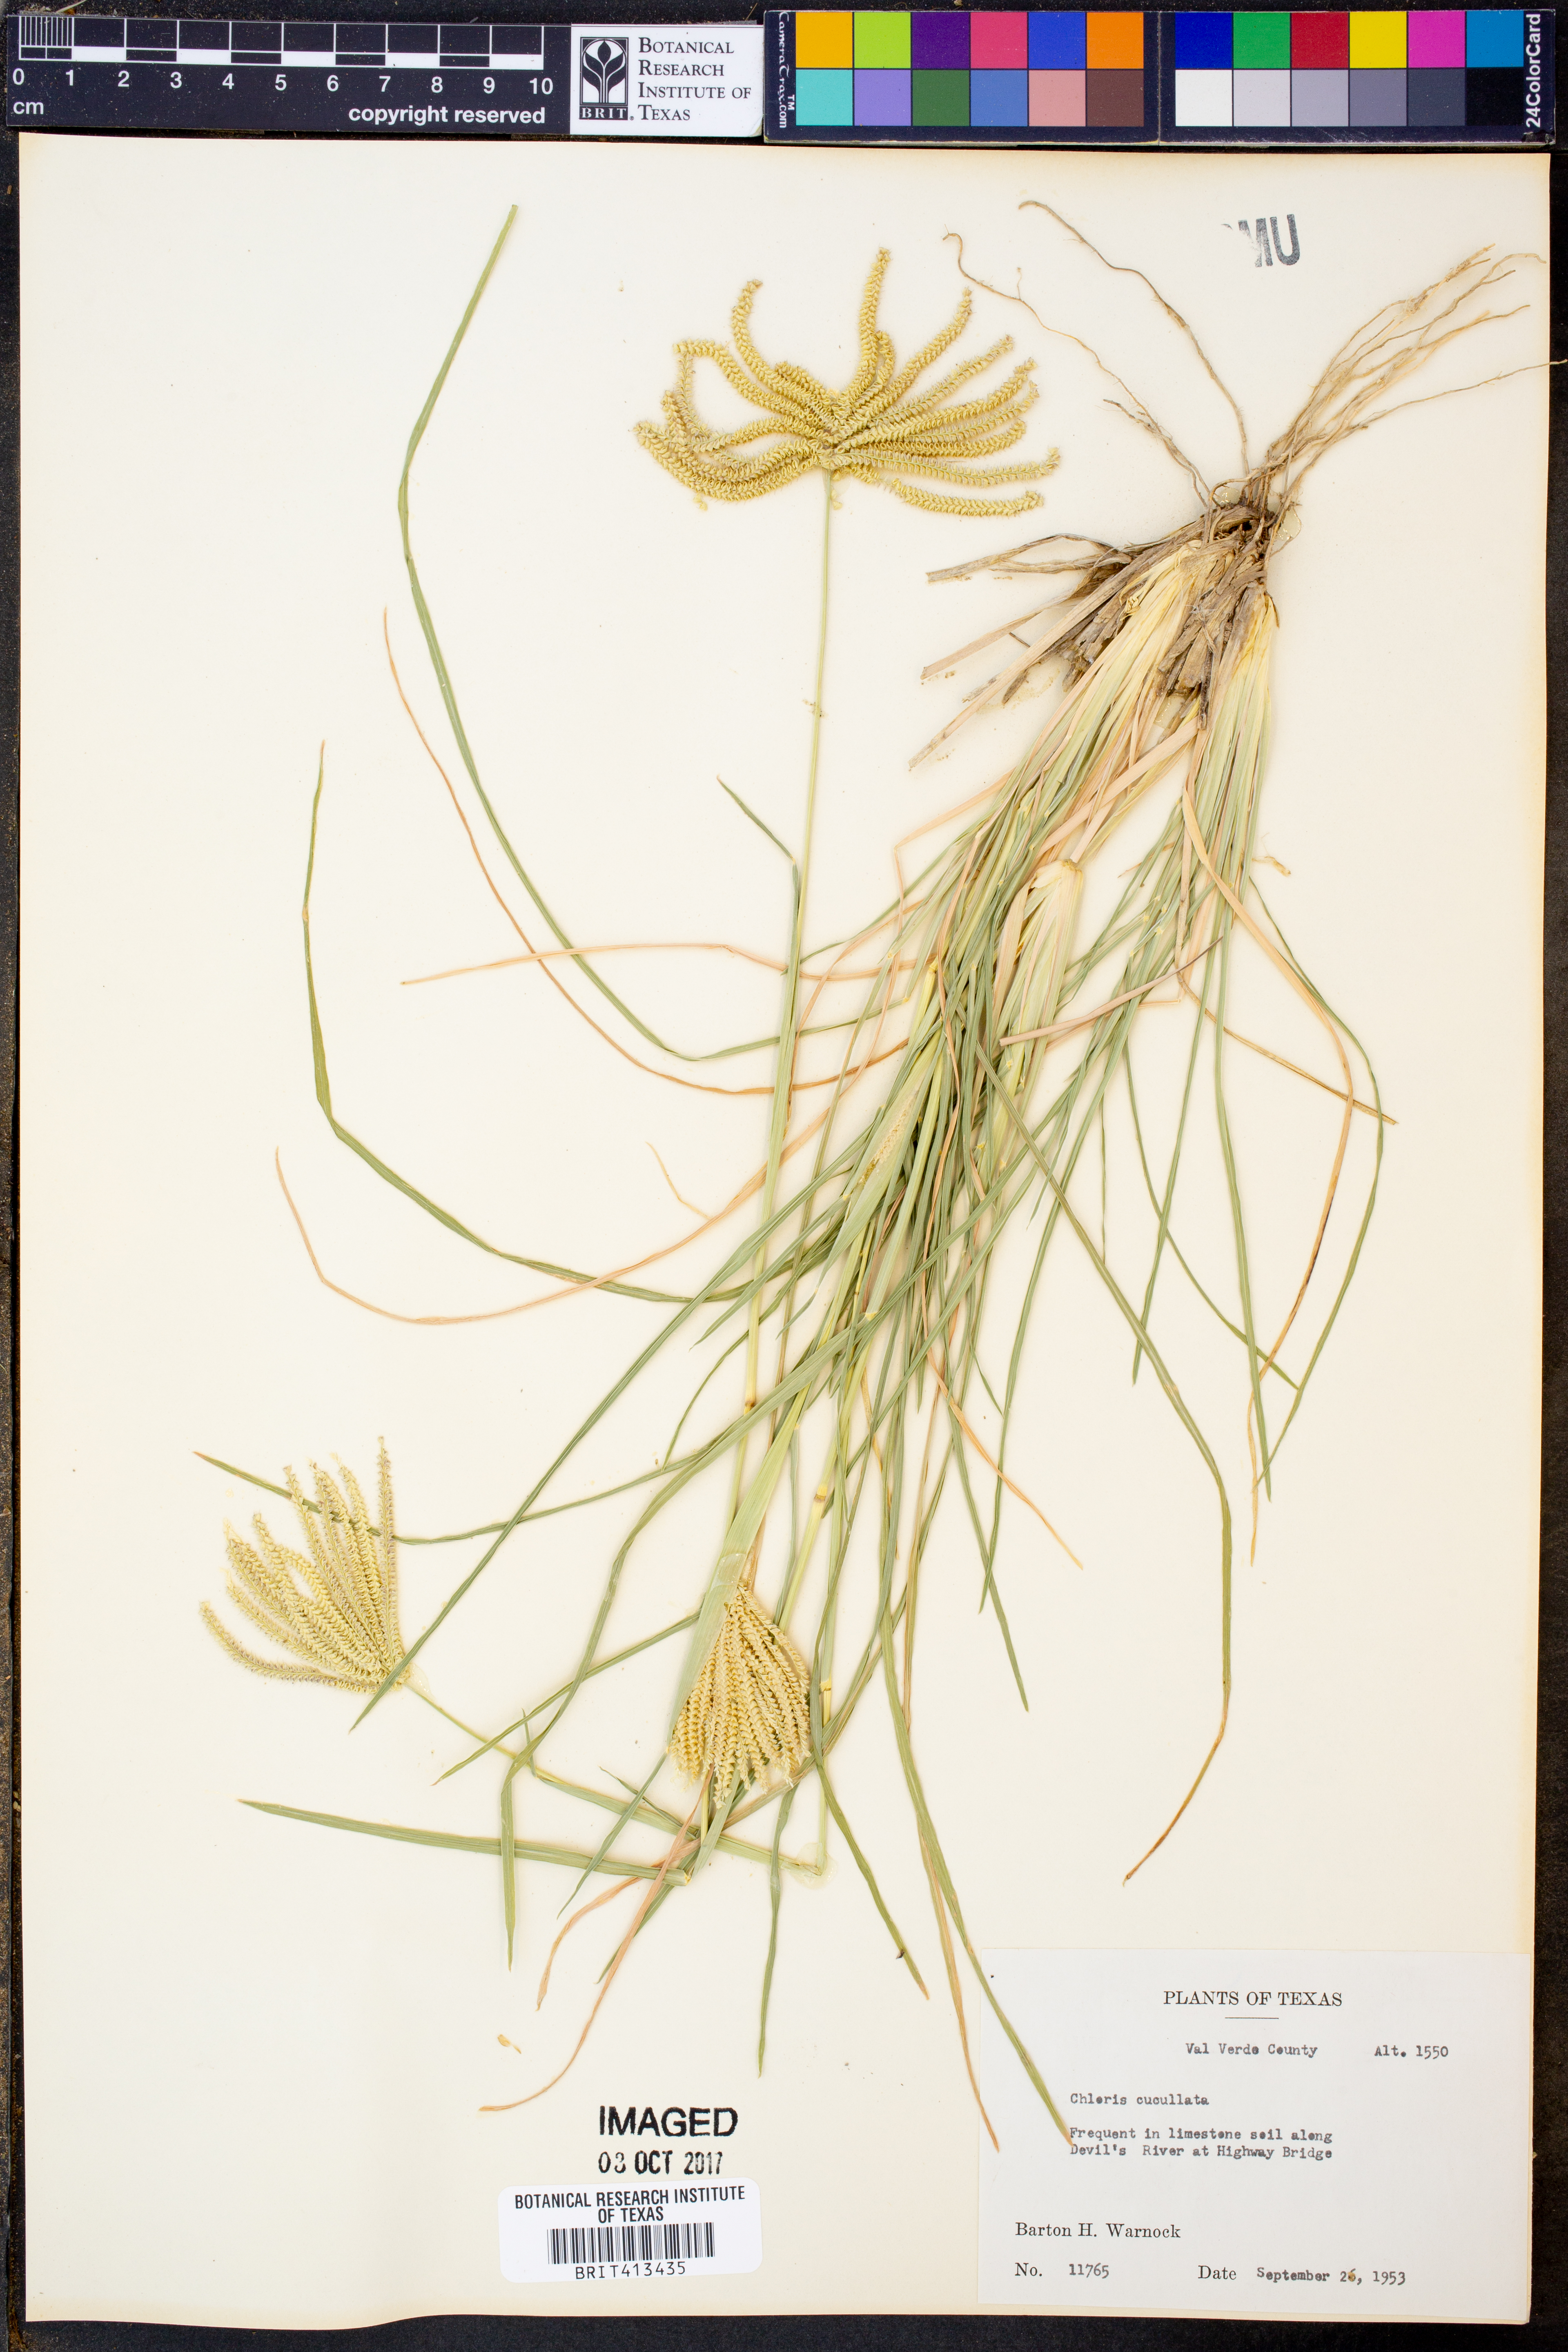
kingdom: Plantae
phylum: Tracheophyta
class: Liliopsida
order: Poales
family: Poaceae
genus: Chloris
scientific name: Chloris cucullata
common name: Hooded windmill grass
